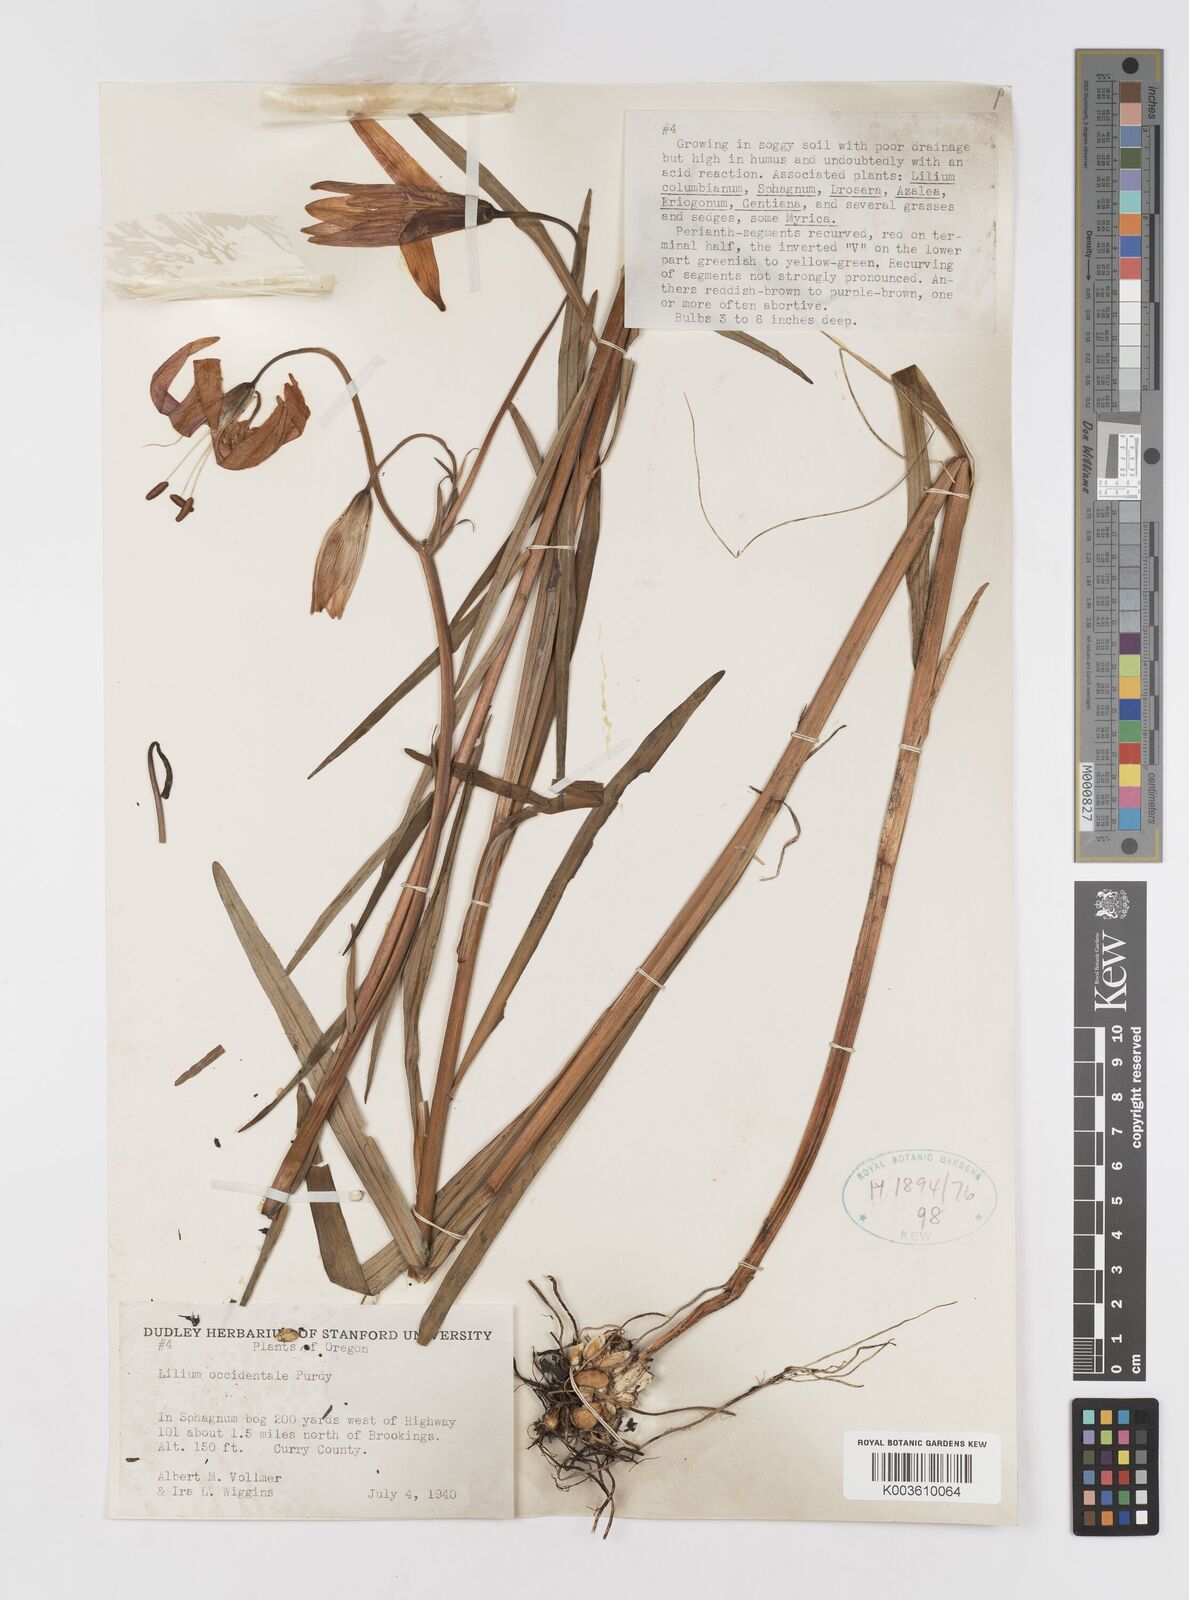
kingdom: Plantae
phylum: Tracheophyta
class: Liliopsida
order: Liliales
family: Liliaceae
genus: Lilium
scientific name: Lilium occidentale
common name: Eureka lily
